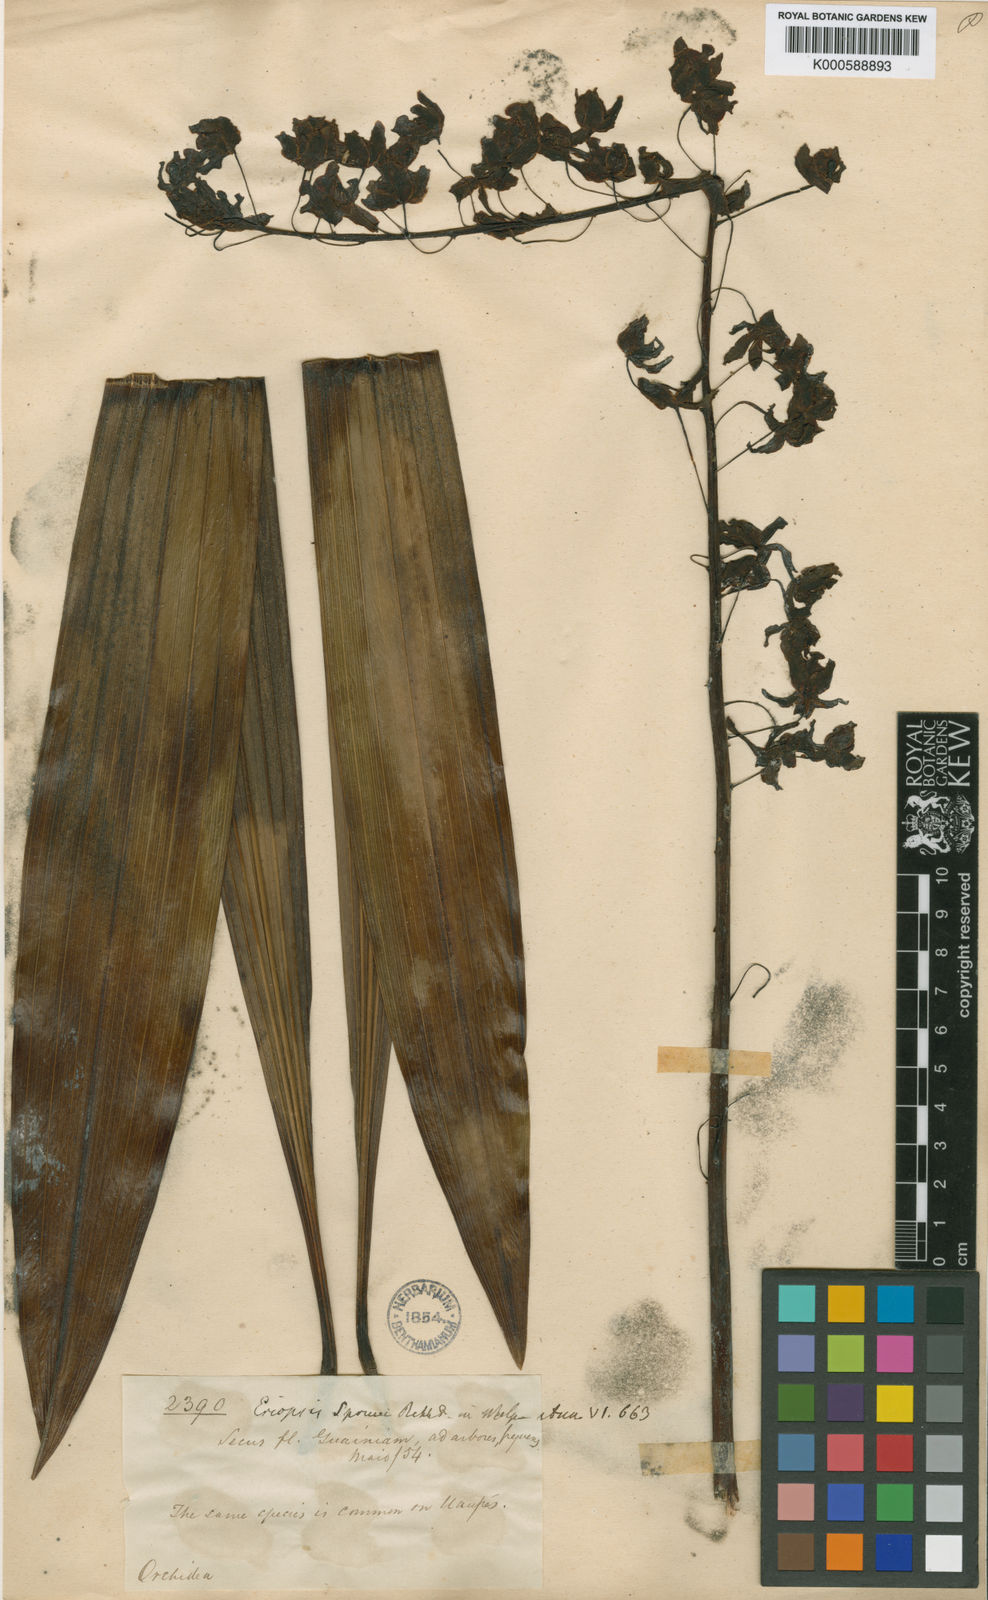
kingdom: Plantae
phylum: Tracheophyta
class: Liliopsida
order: Asparagales
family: Orchidaceae
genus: Eriopsis
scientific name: Eriopsis altissima
